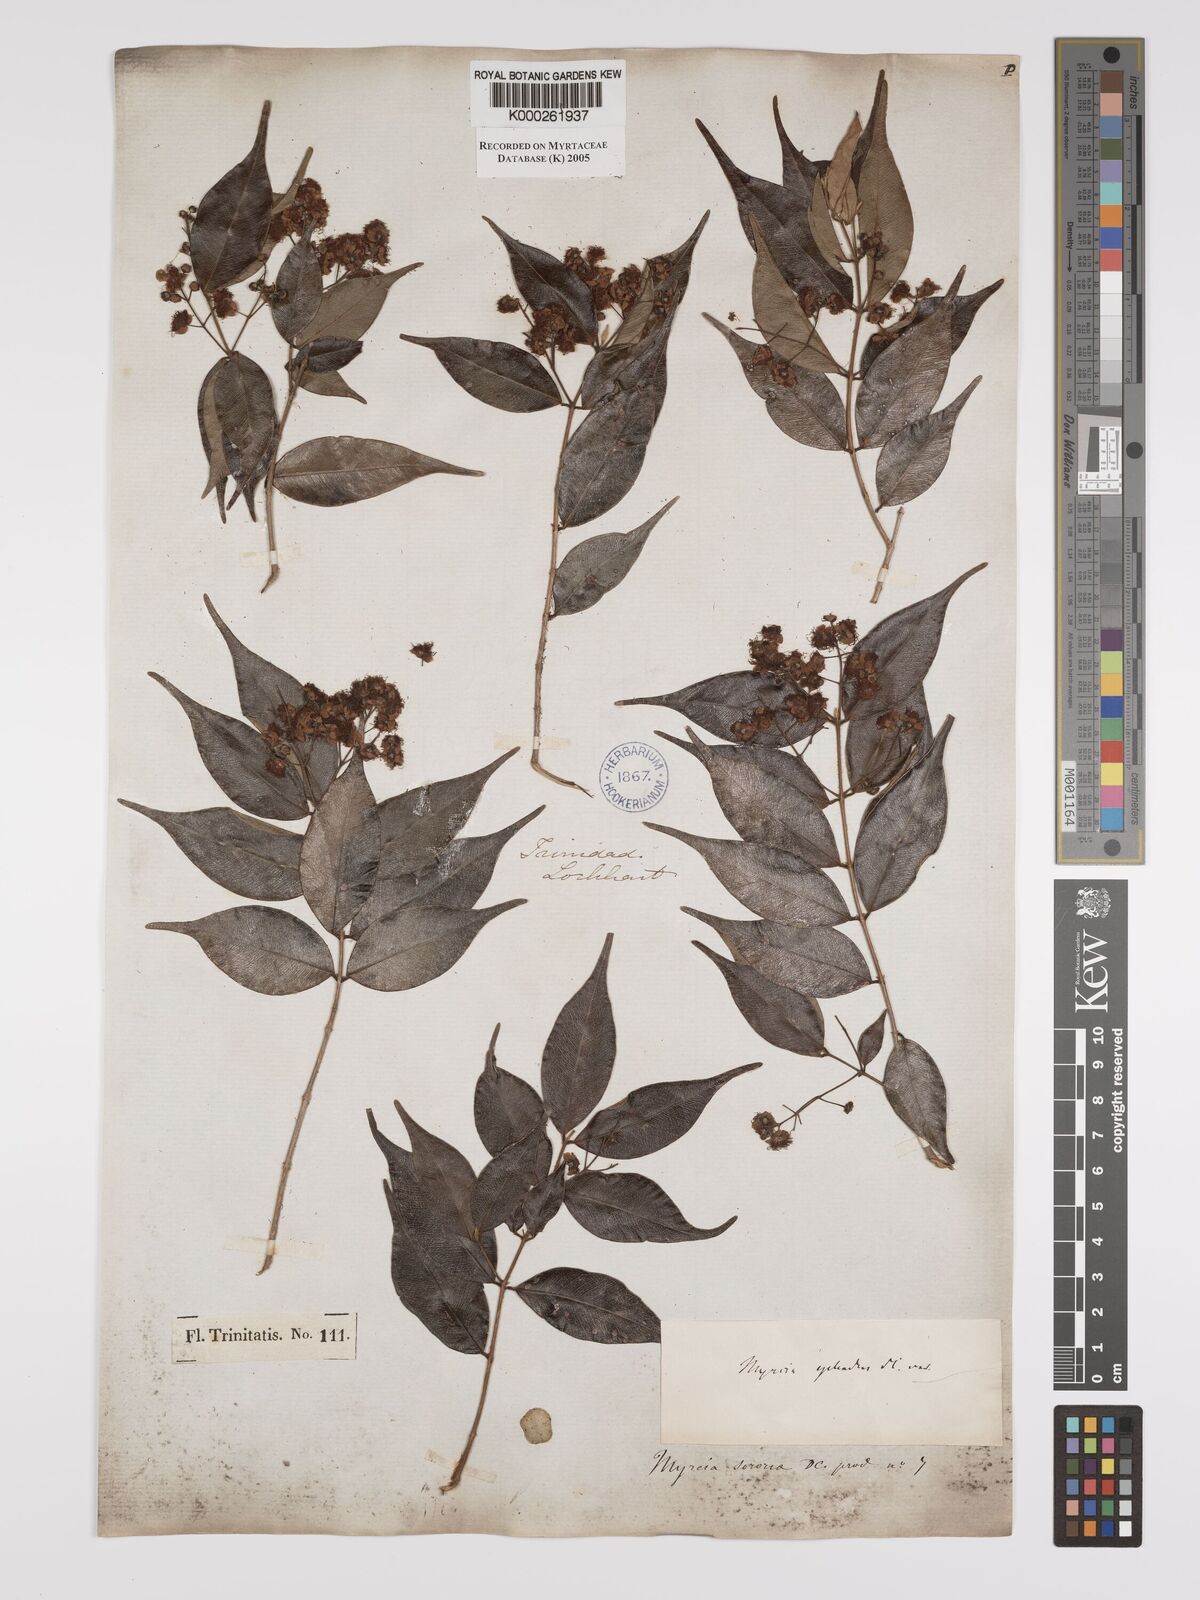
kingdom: Plantae
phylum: Tracheophyta
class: Magnoliopsida
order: Myrtales
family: Myrtaceae
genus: Myrcia
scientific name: Myrcia splendens
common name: Surinam cherry
